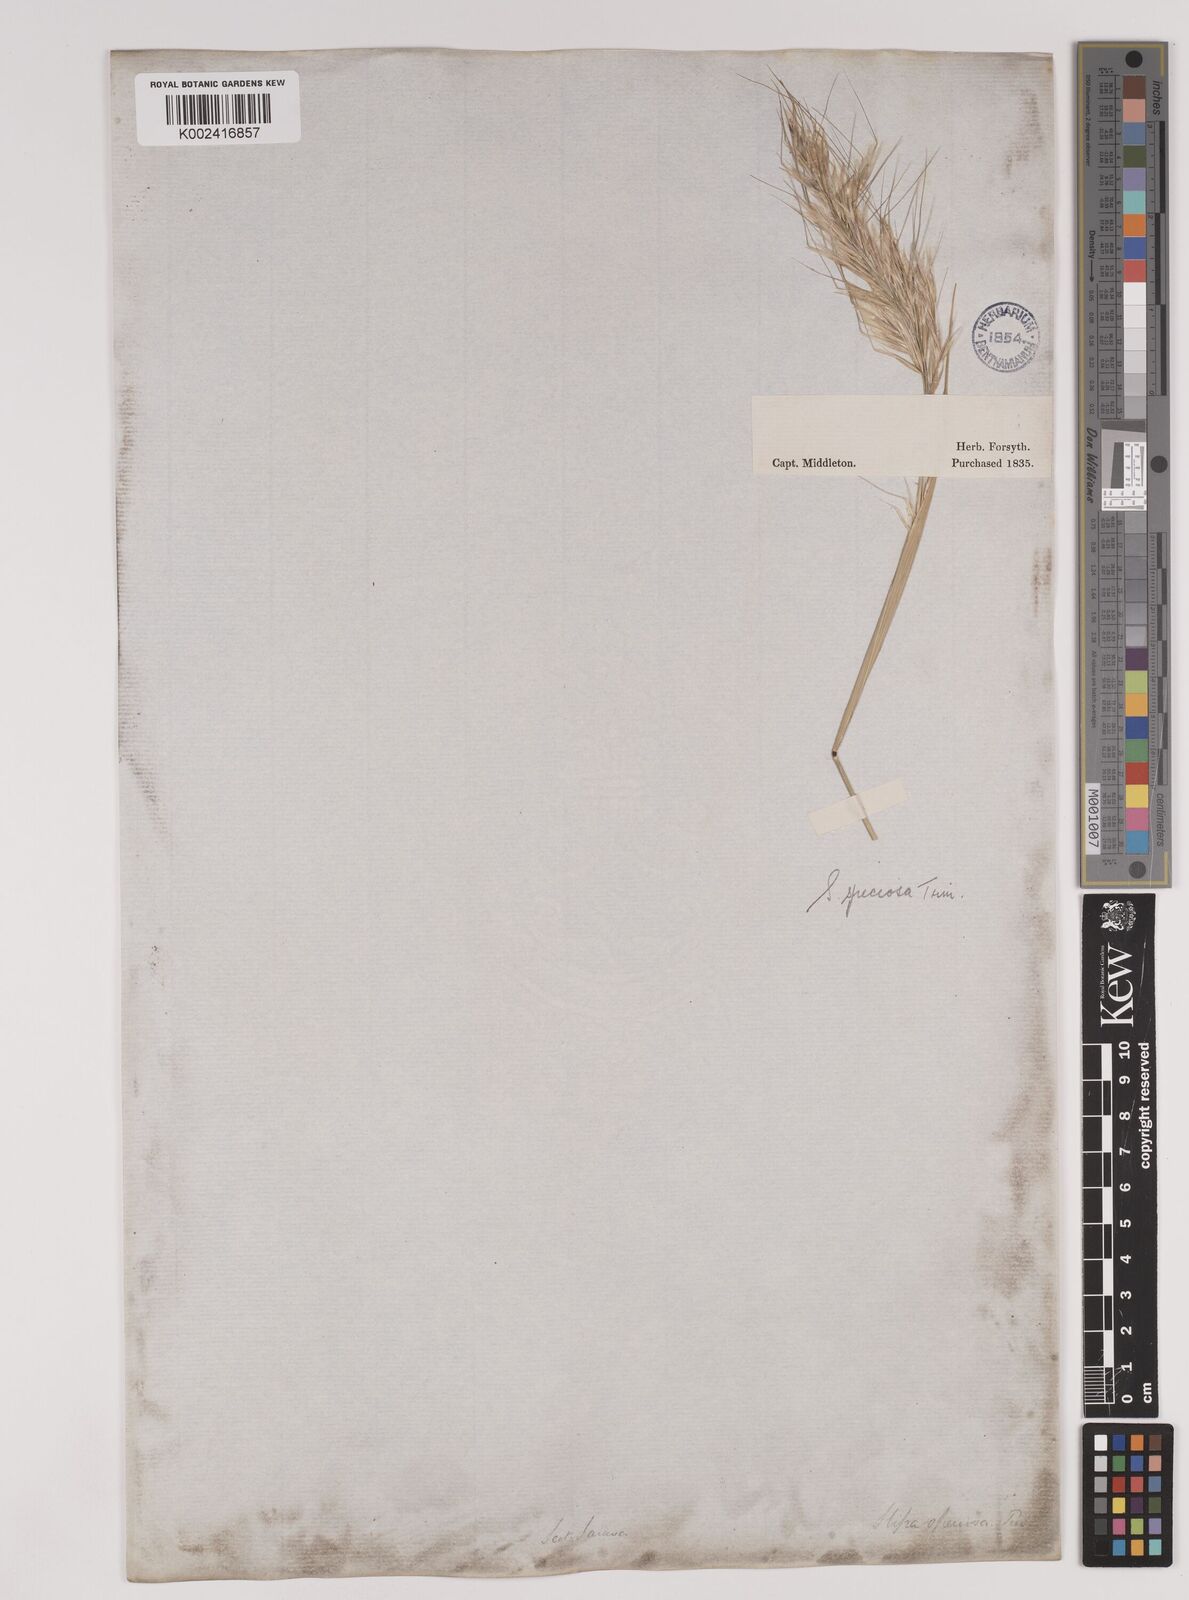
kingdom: Plantae
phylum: Tracheophyta
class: Liliopsida
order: Poales
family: Poaceae
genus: Pappostipa
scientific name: Pappostipa speciosa
